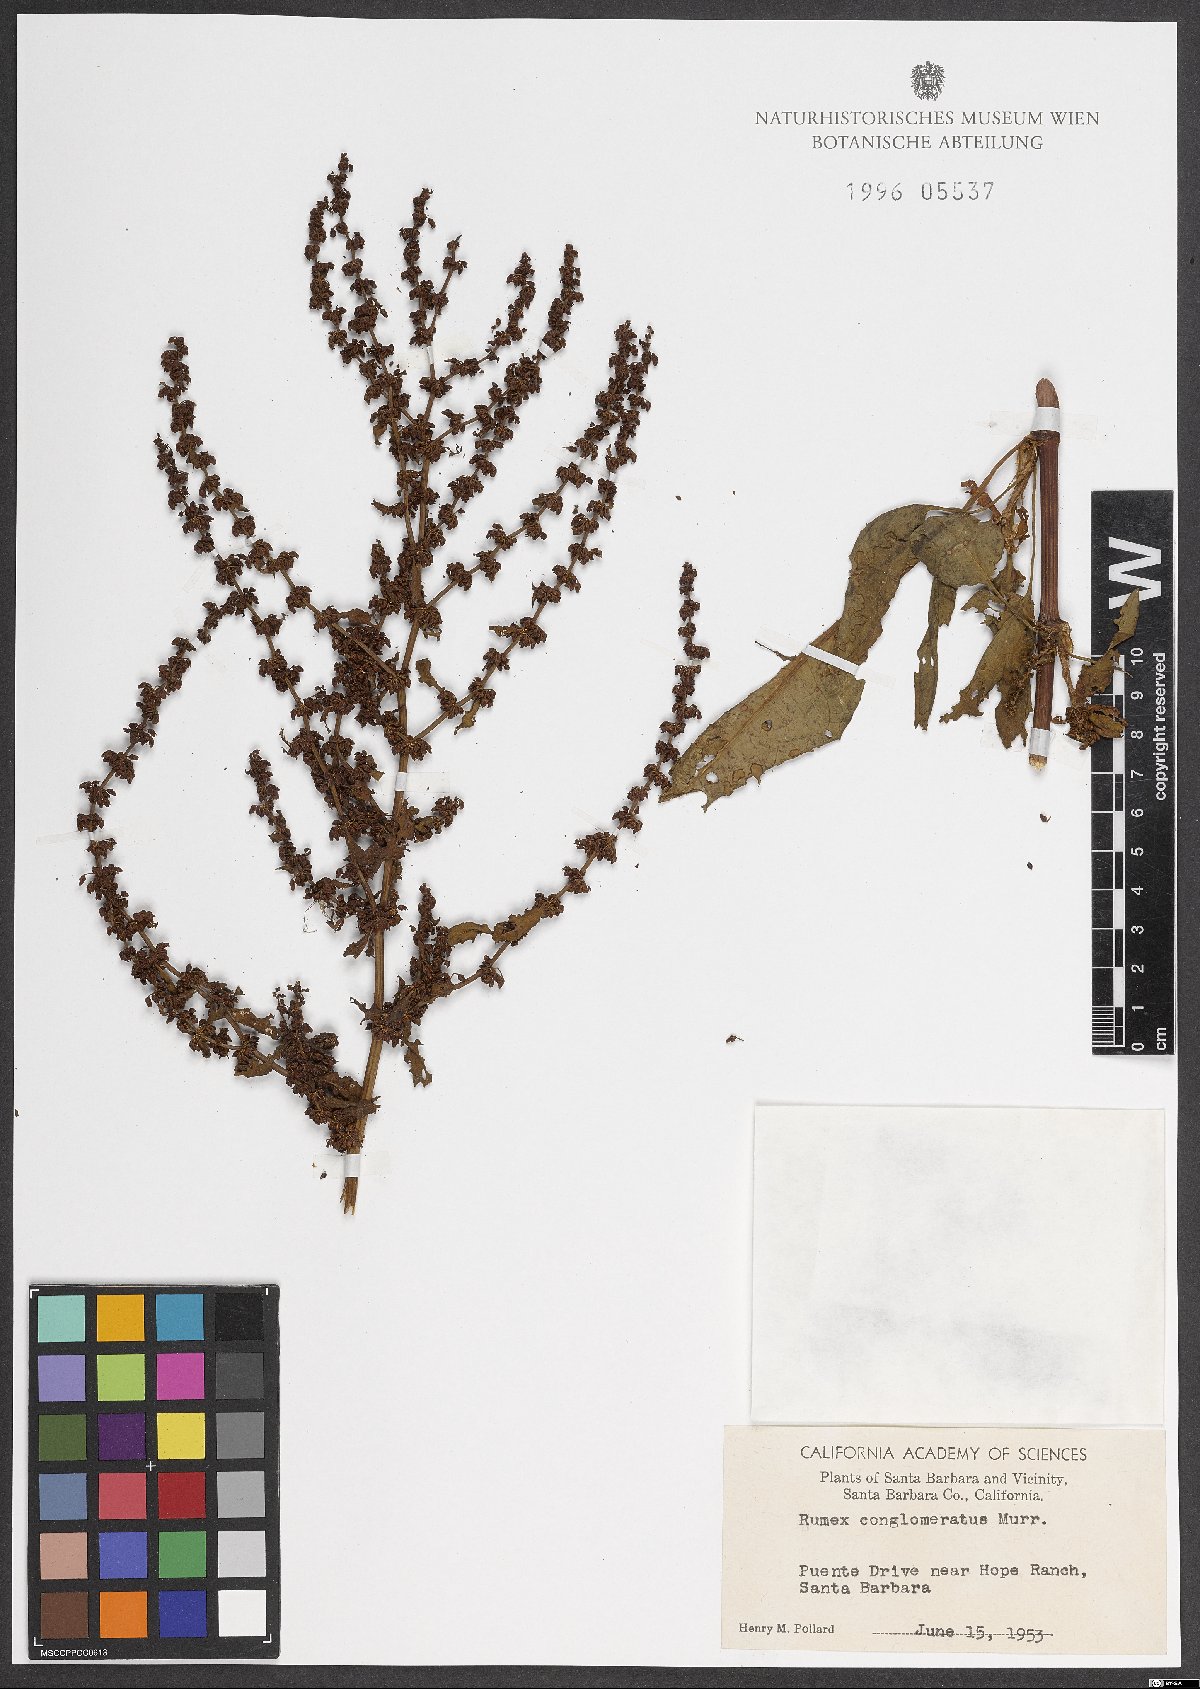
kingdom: Plantae
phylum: Tracheophyta
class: Magnoliopsida
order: Caryophyllales
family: Polygonaceae
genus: Rumex
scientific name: Rumex conglomeratus
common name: Clustered dock
